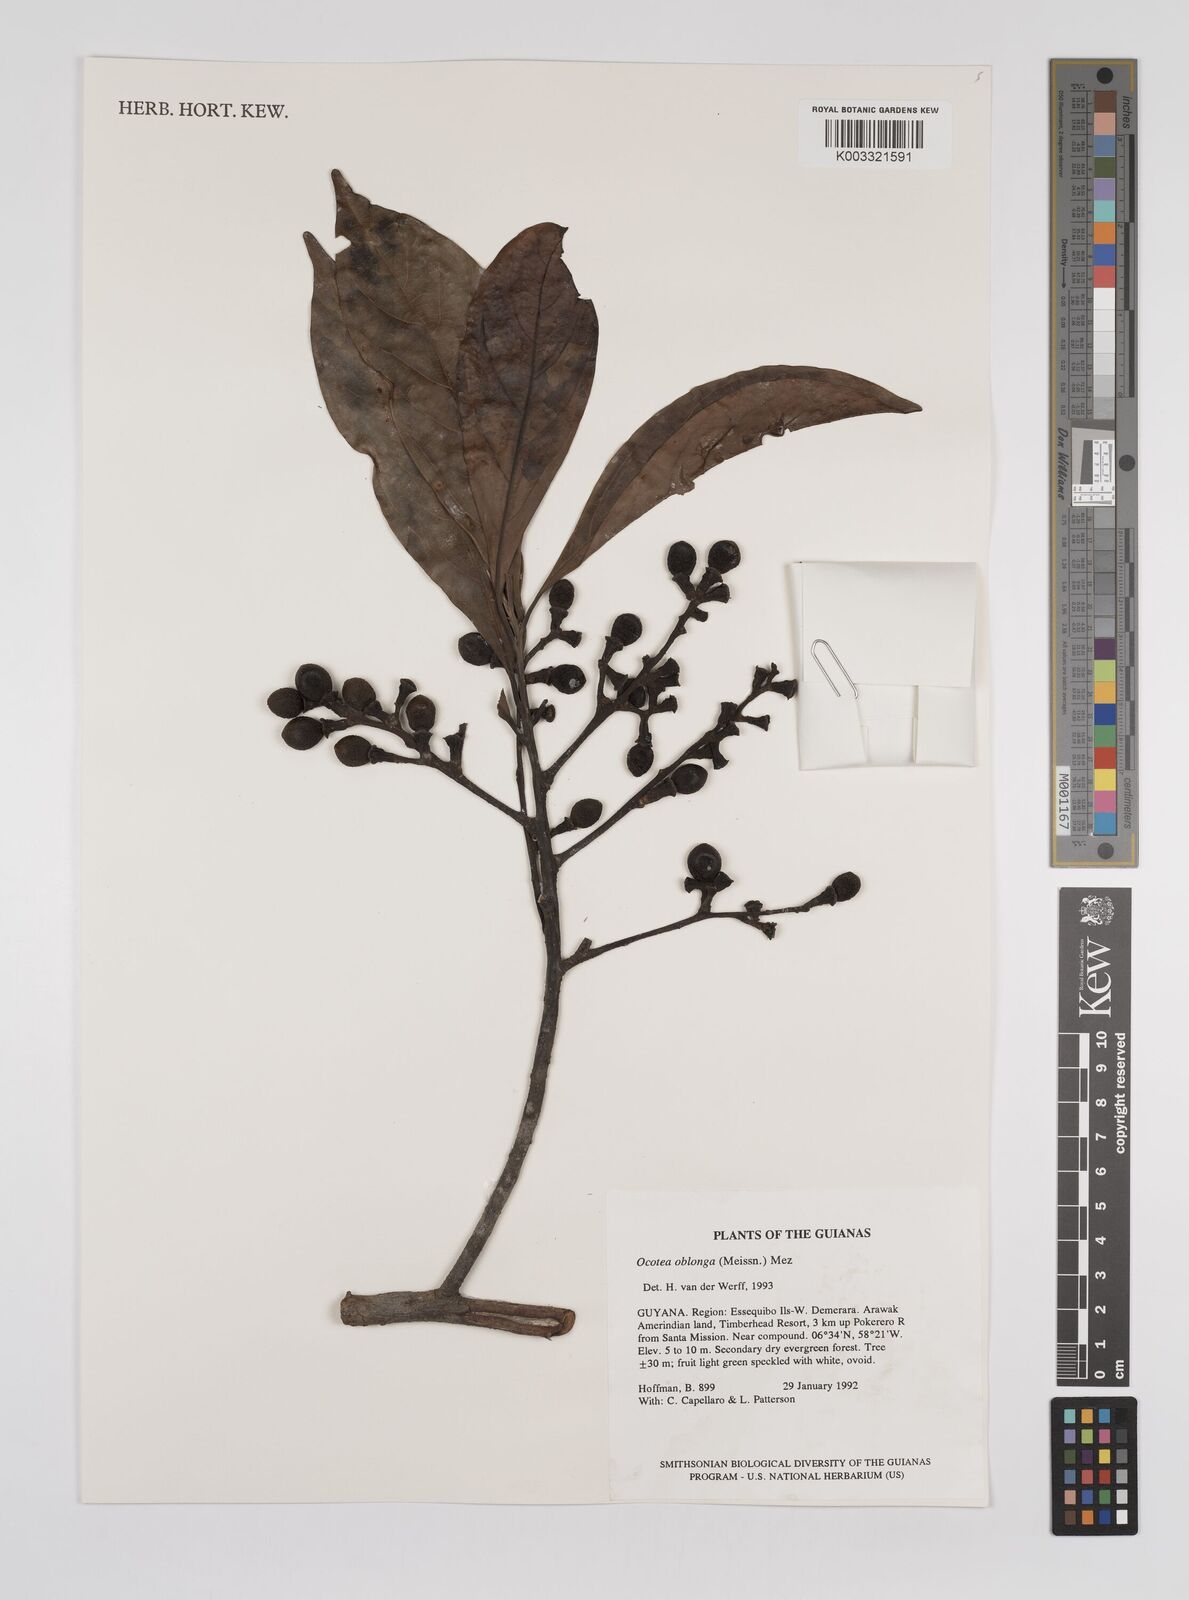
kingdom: Plantae
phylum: Tracheophyta
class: Magnoliopsida
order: Laurales
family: Lauraceae
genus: Ocotea
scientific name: Ocotea oblonga
